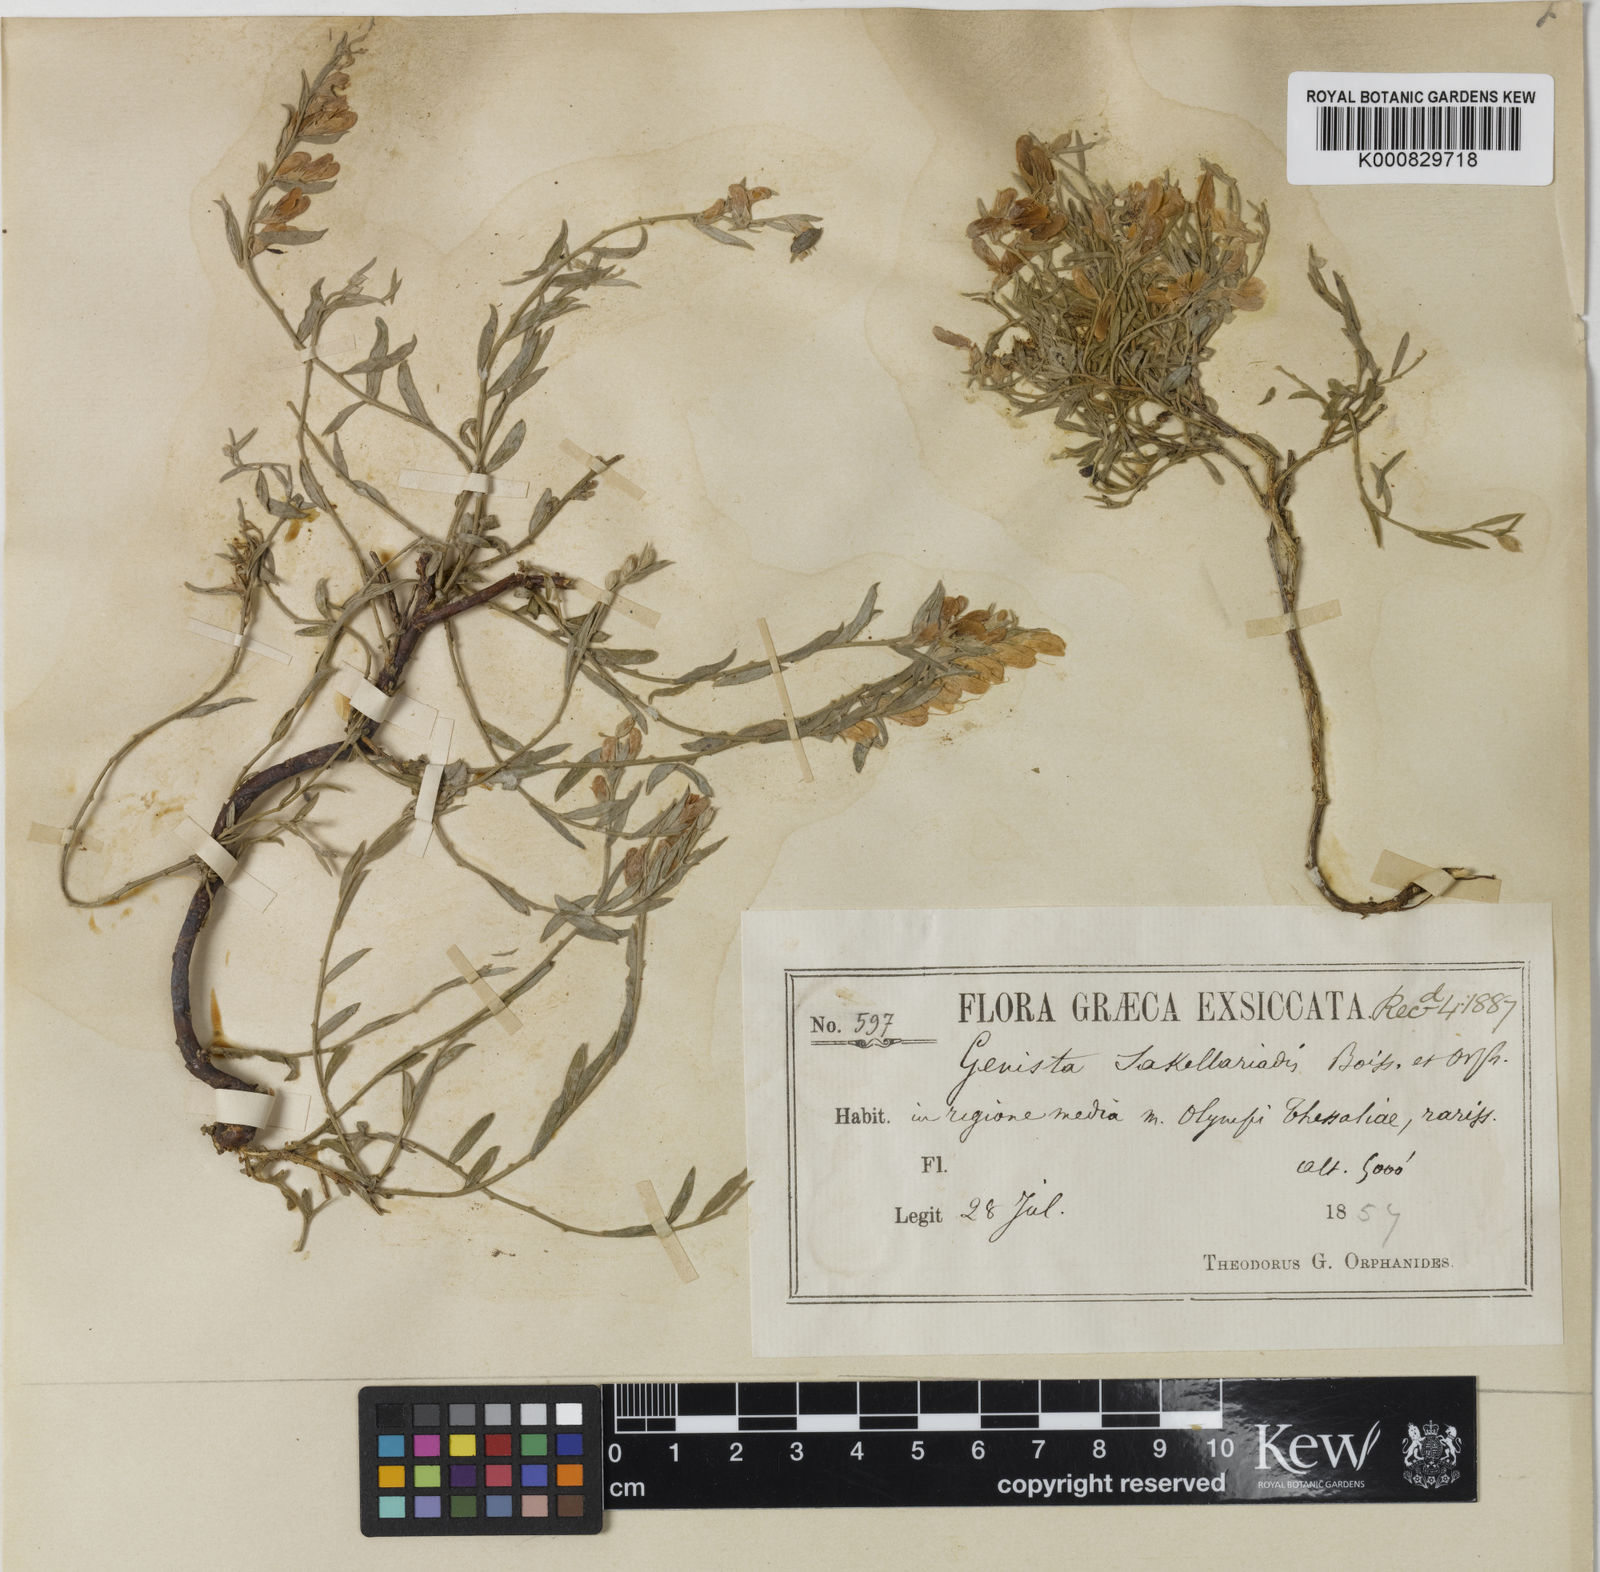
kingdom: Plantae
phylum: Tracheophyta
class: Magnoliopsida
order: Fabales
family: Fabaceae
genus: Genista
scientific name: Genista sakellariadis
